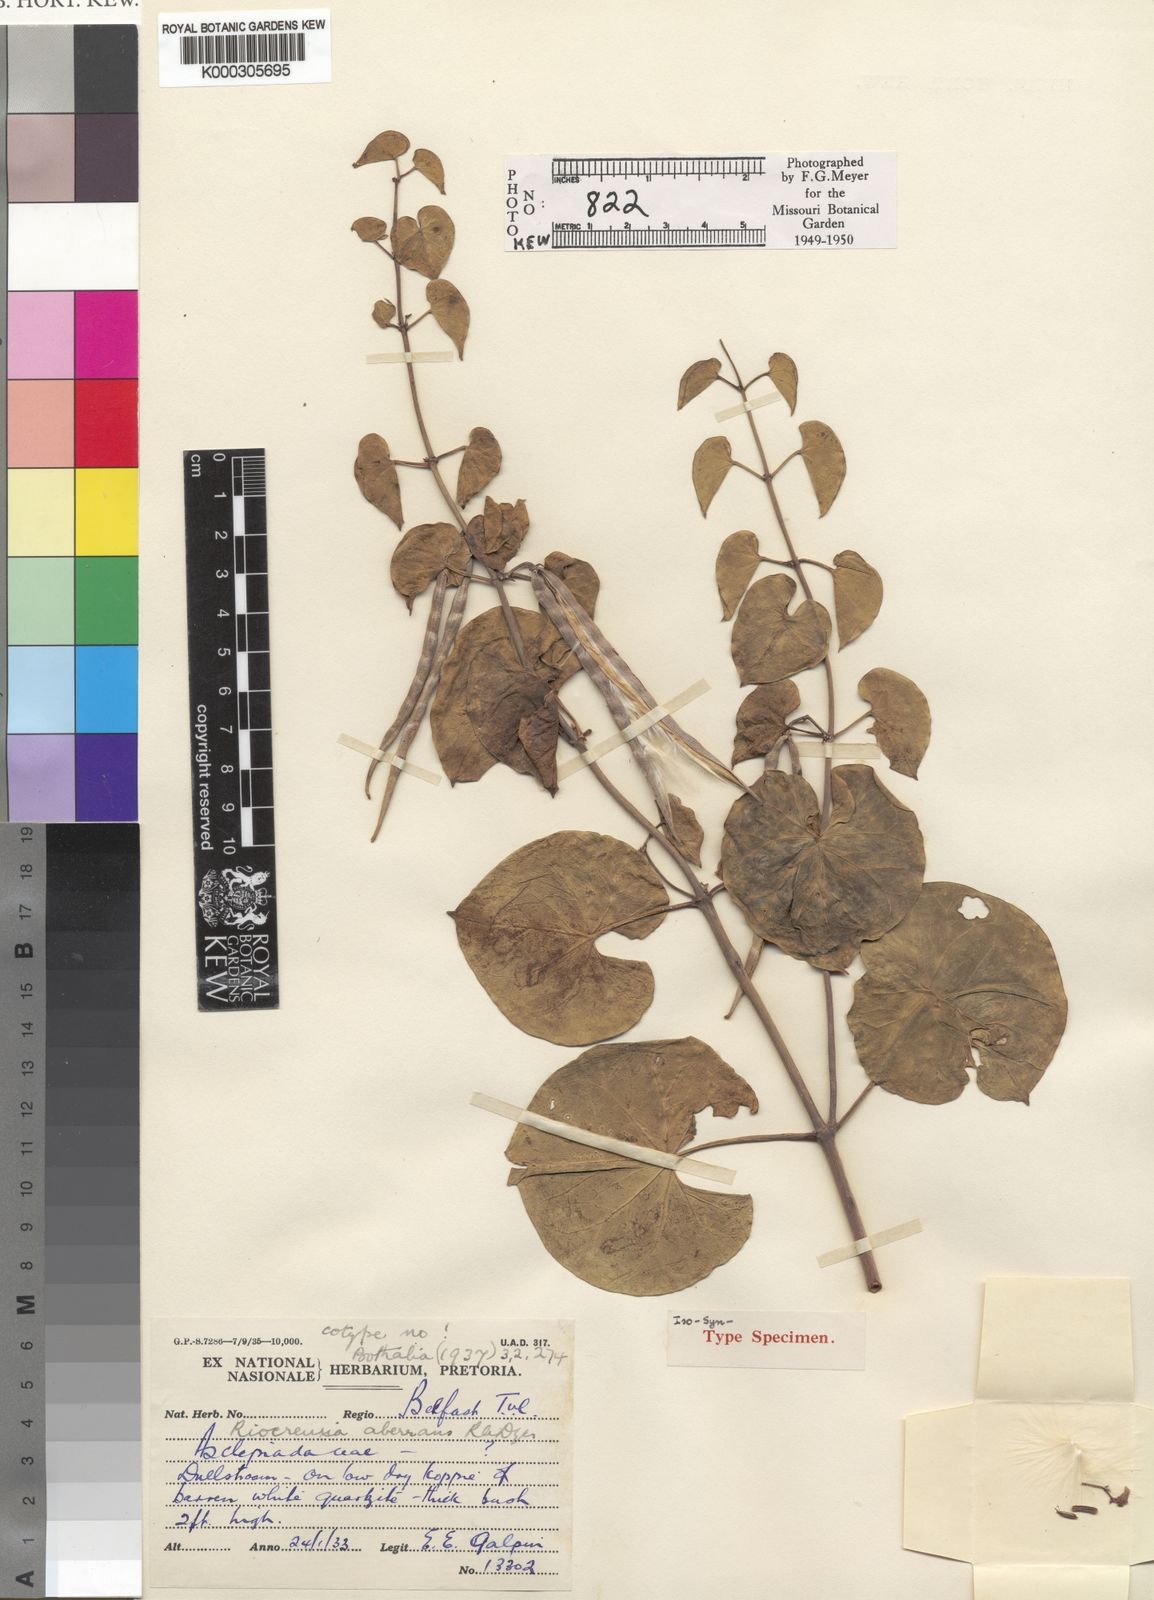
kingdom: Plantae
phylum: Tracheophyta
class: Magnoliopsida
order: Gentianales
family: Apocynaceae
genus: Riocreuxia
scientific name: Riocreuxia aberrans
